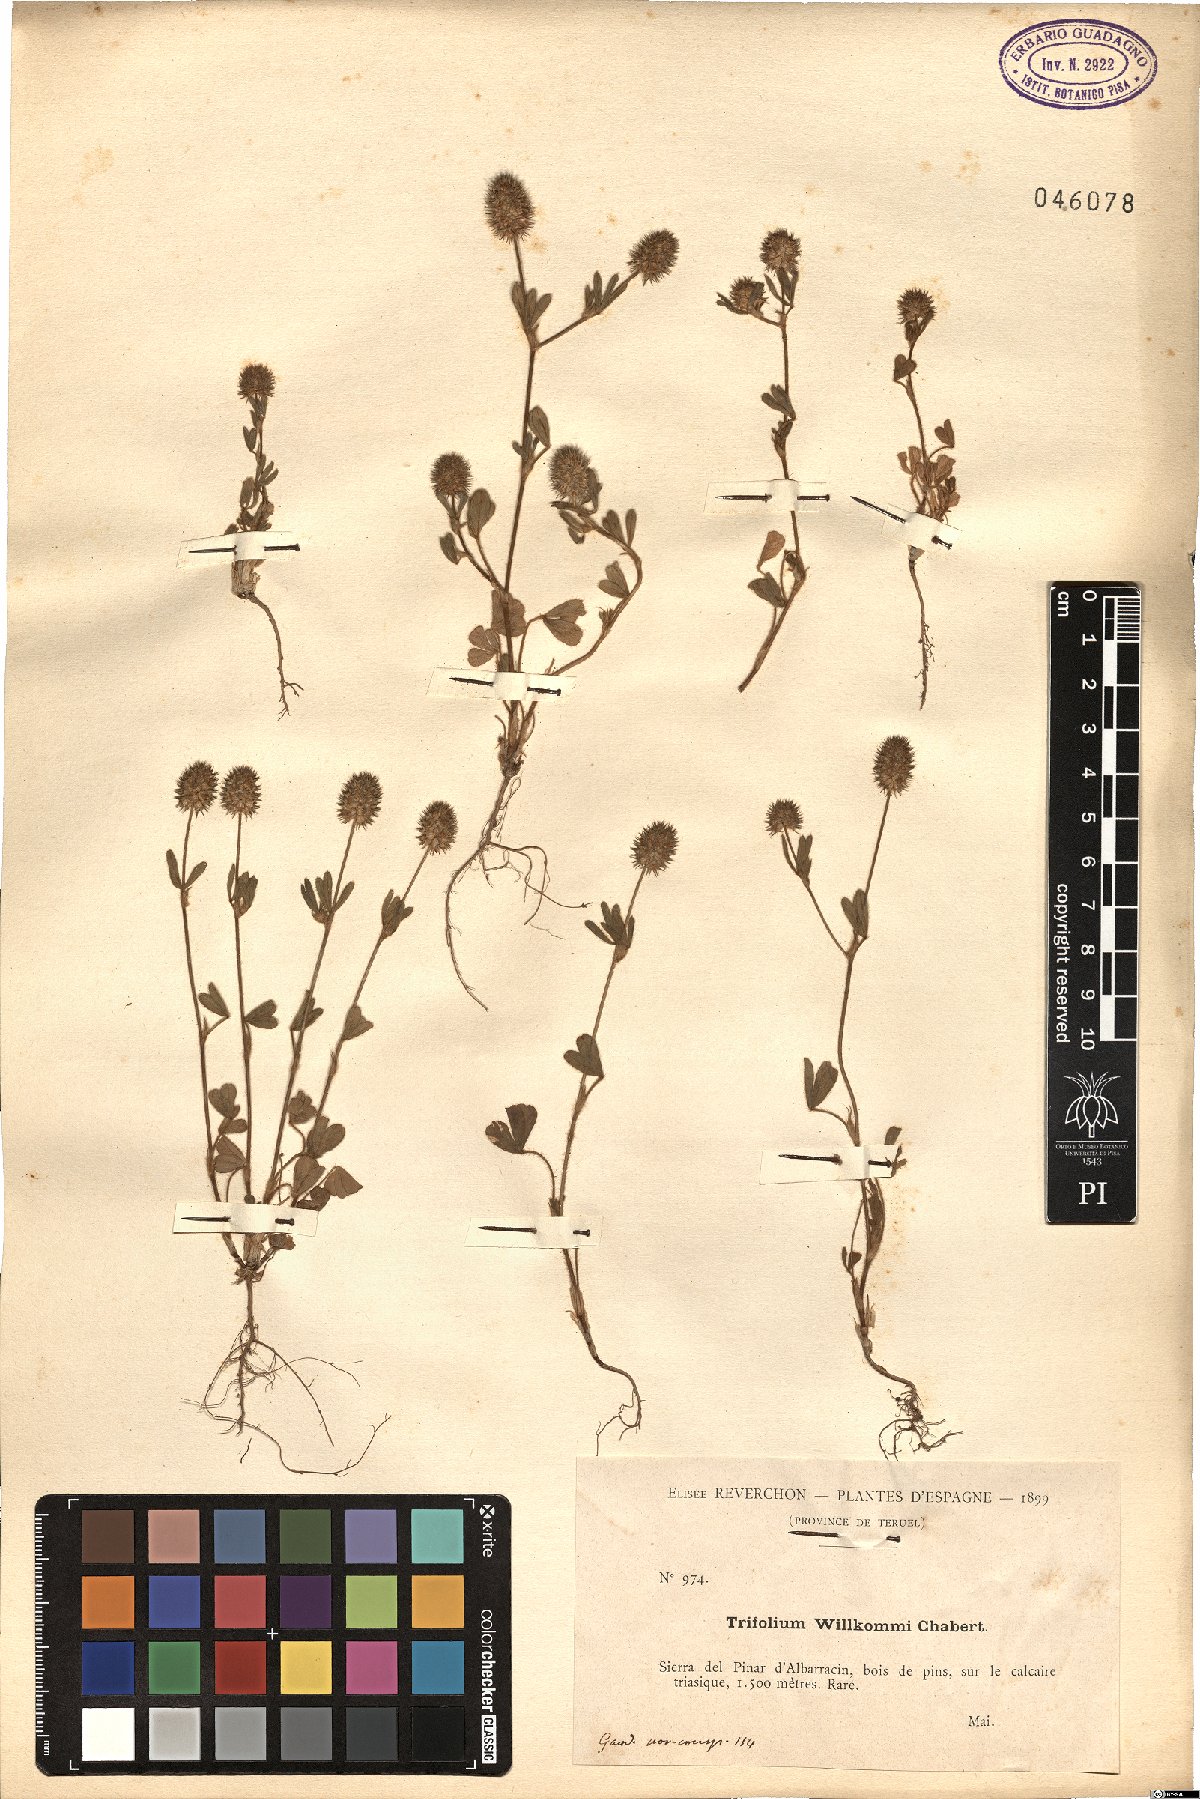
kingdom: Plantae
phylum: Tracheophyta
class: Magnoliopsida
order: Fabales
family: Fabaceae
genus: Trifolium
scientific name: Trifolium phleoides
